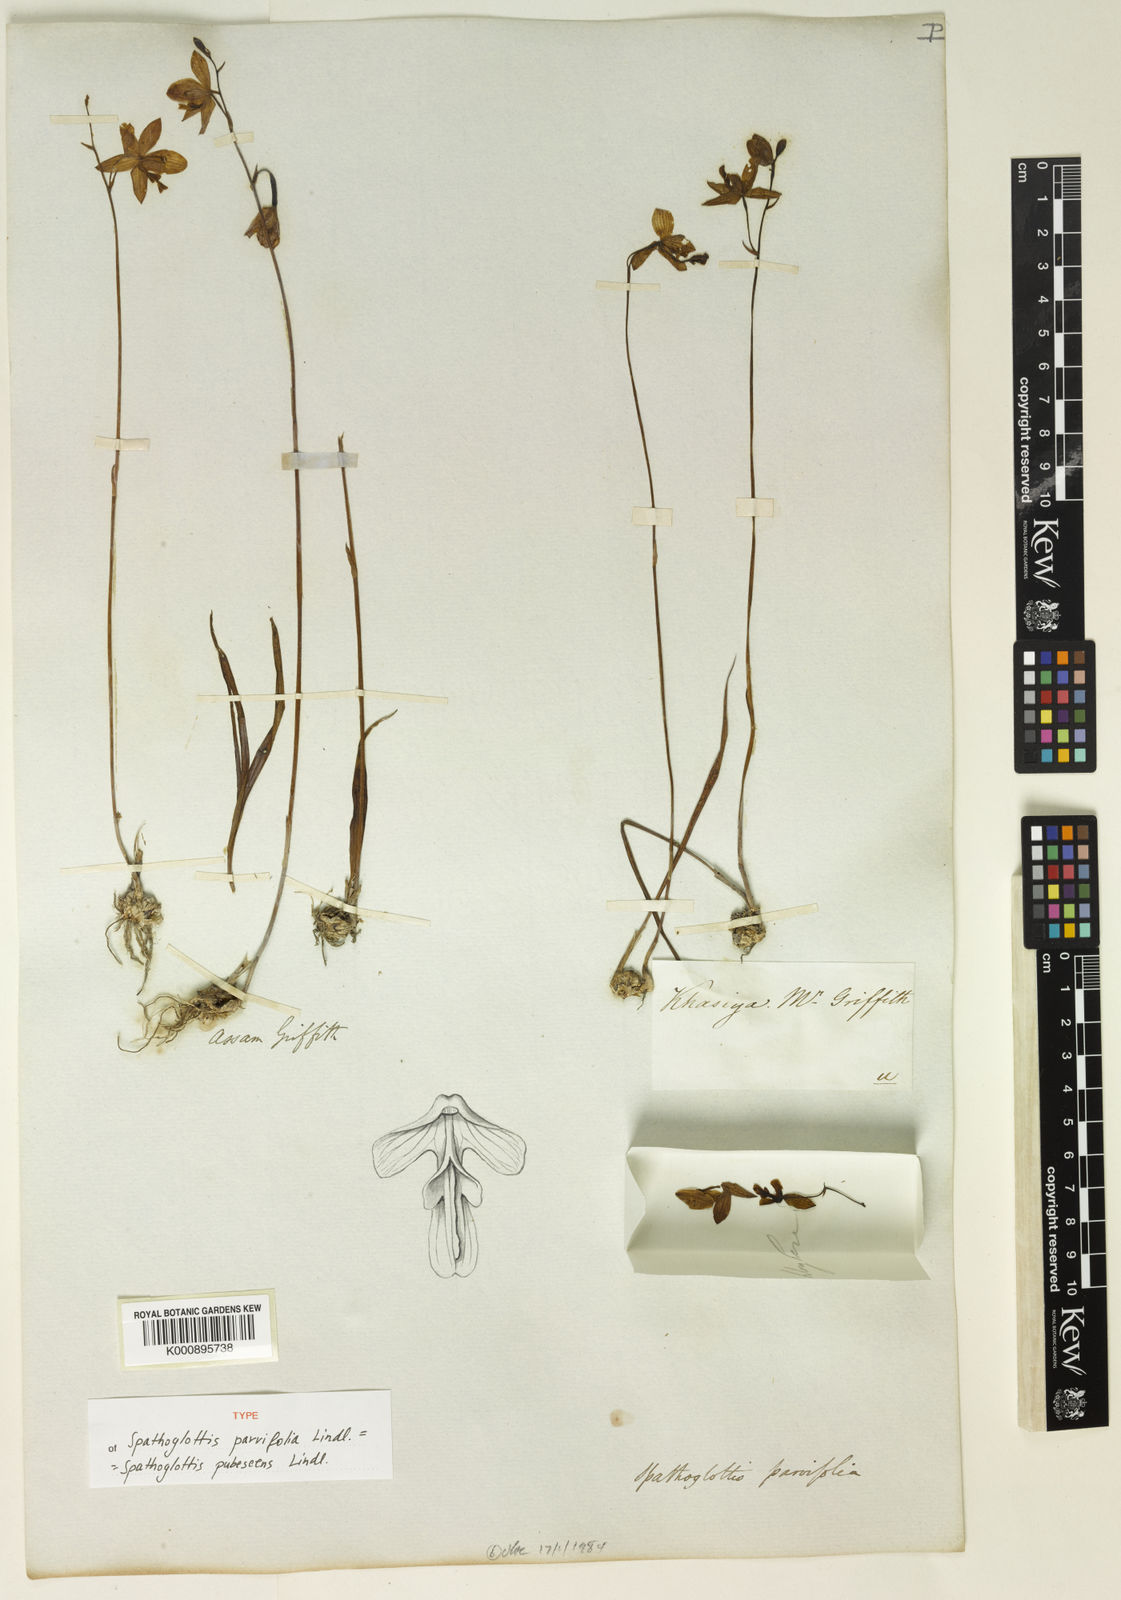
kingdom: Plantae
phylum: Tracheophyta
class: Liliopsida
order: Asparagales
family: Orchidaceae
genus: Spathoglottis
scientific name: Spathoglottis pubescens
